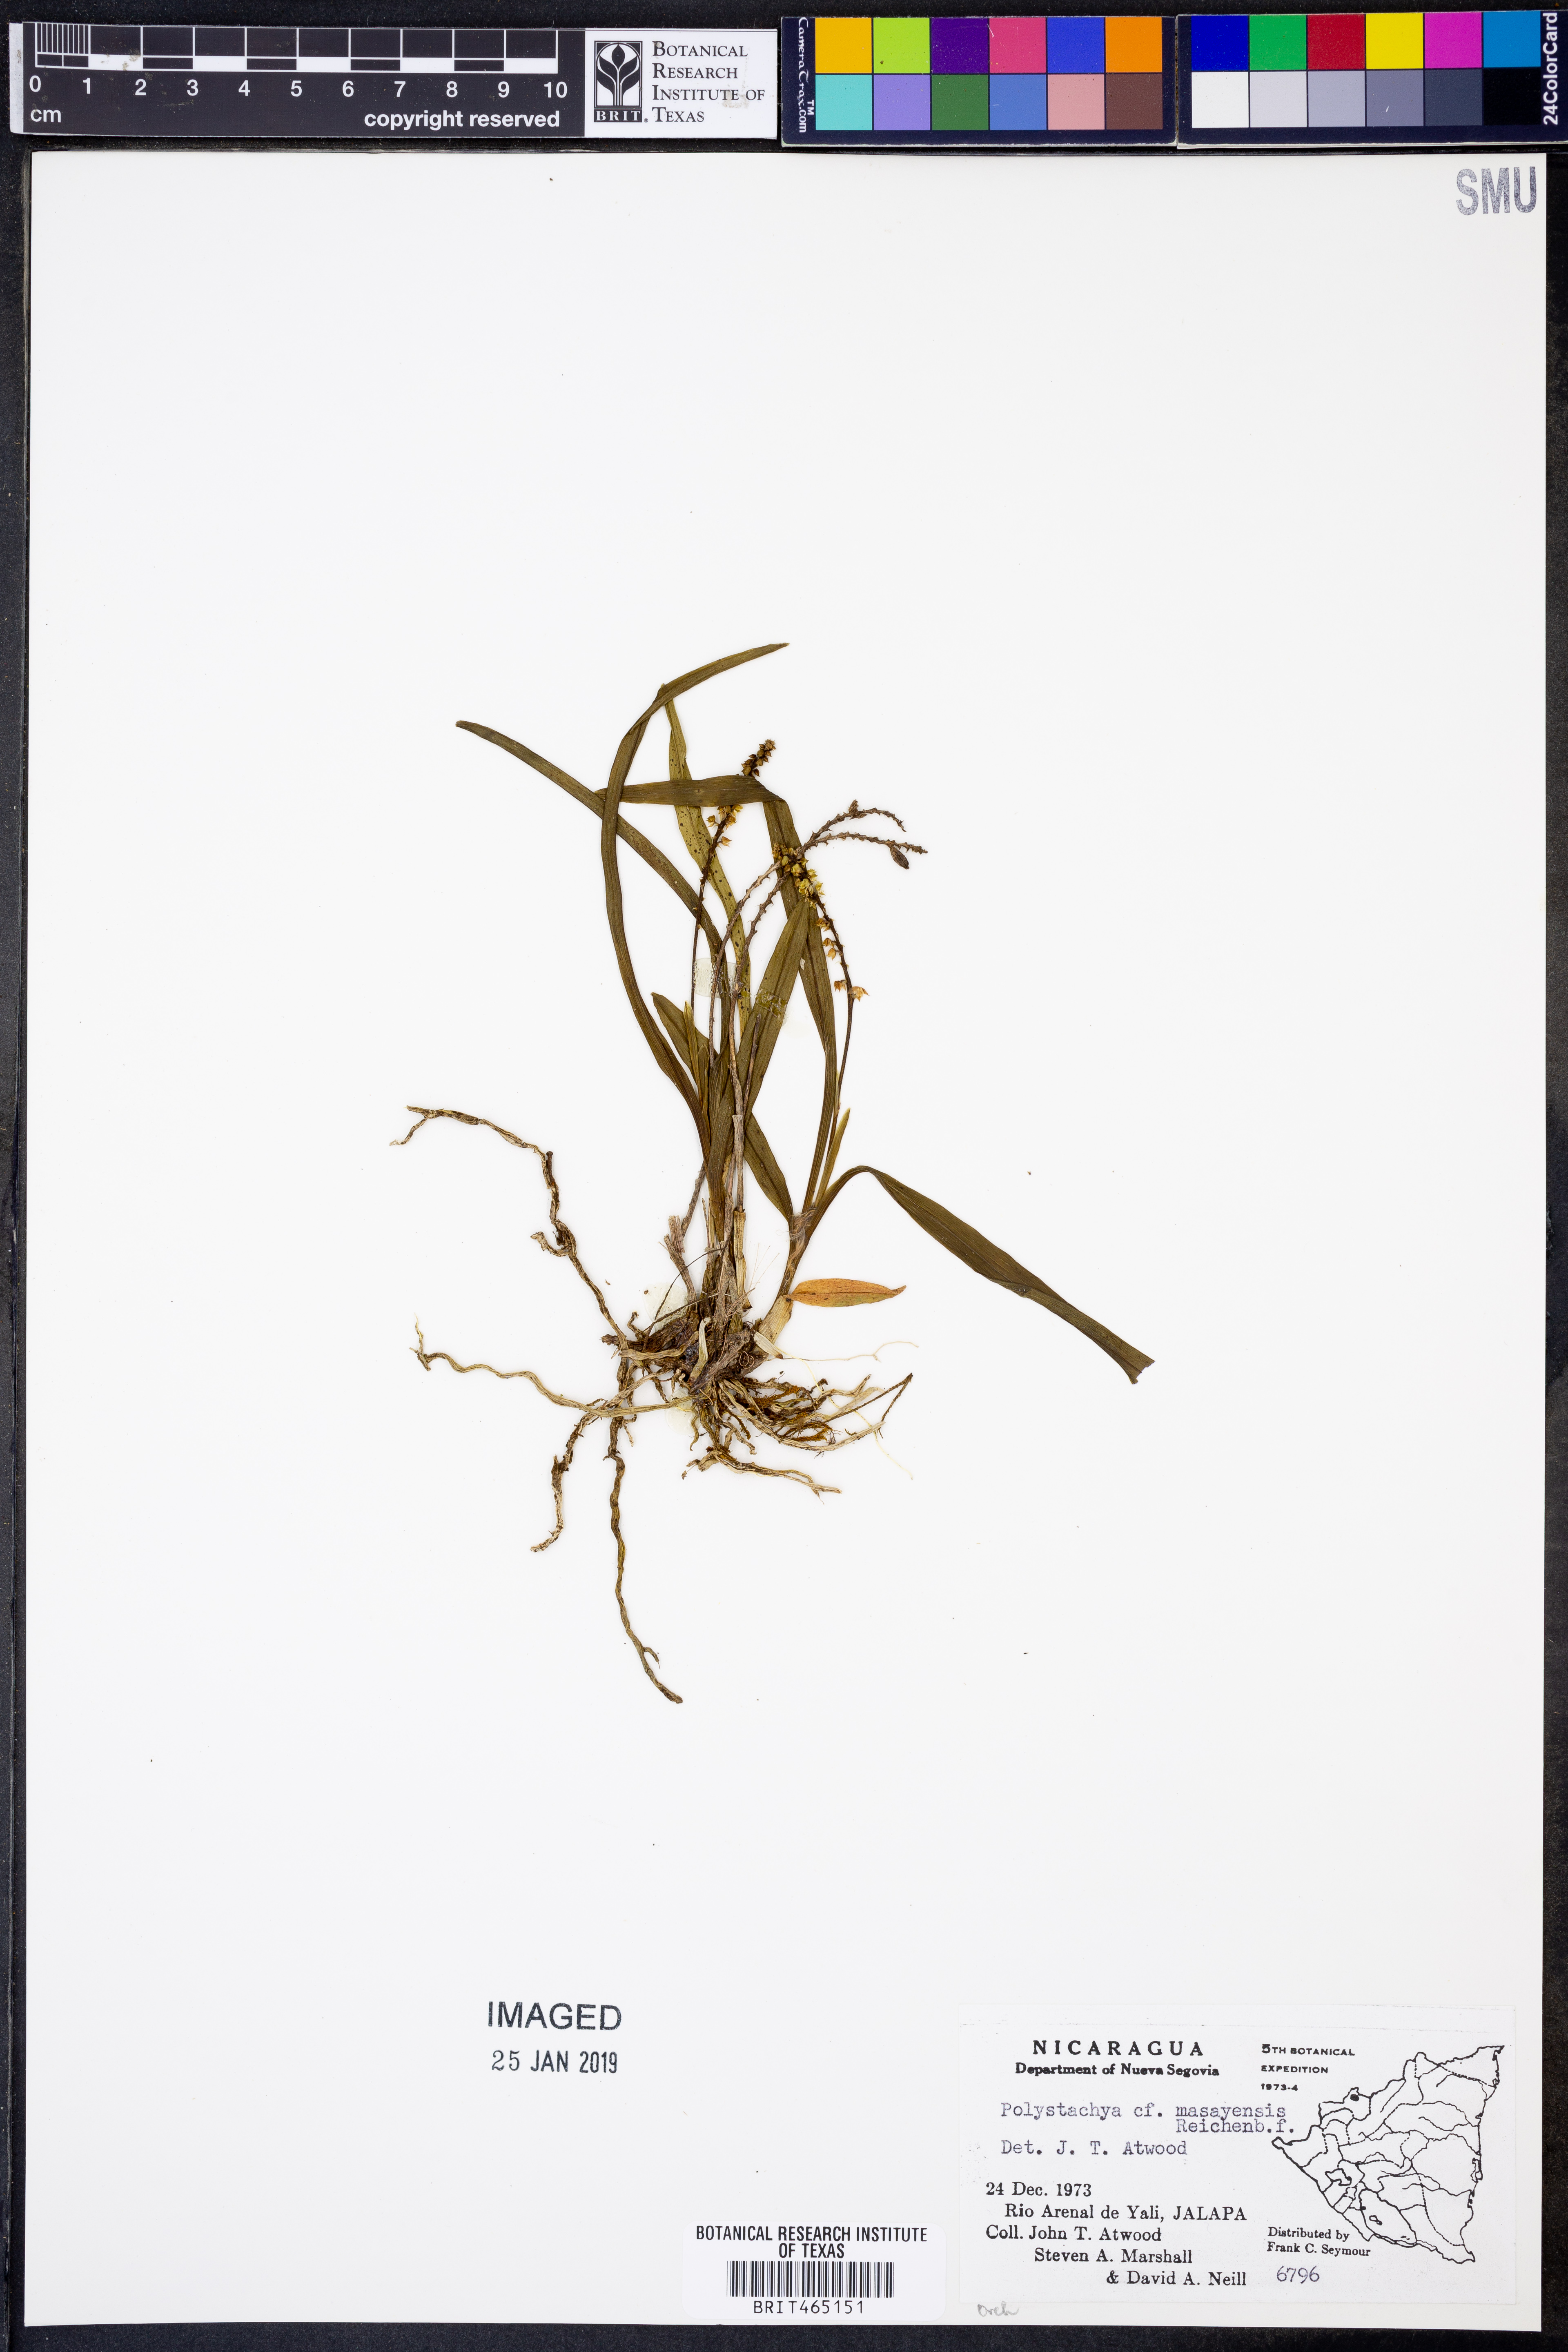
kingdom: Plantae
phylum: Tracheophyta
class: Liliopsida
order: Asparagales
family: Orchidaceae
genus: Polystachya
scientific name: Polystachya masayensis
